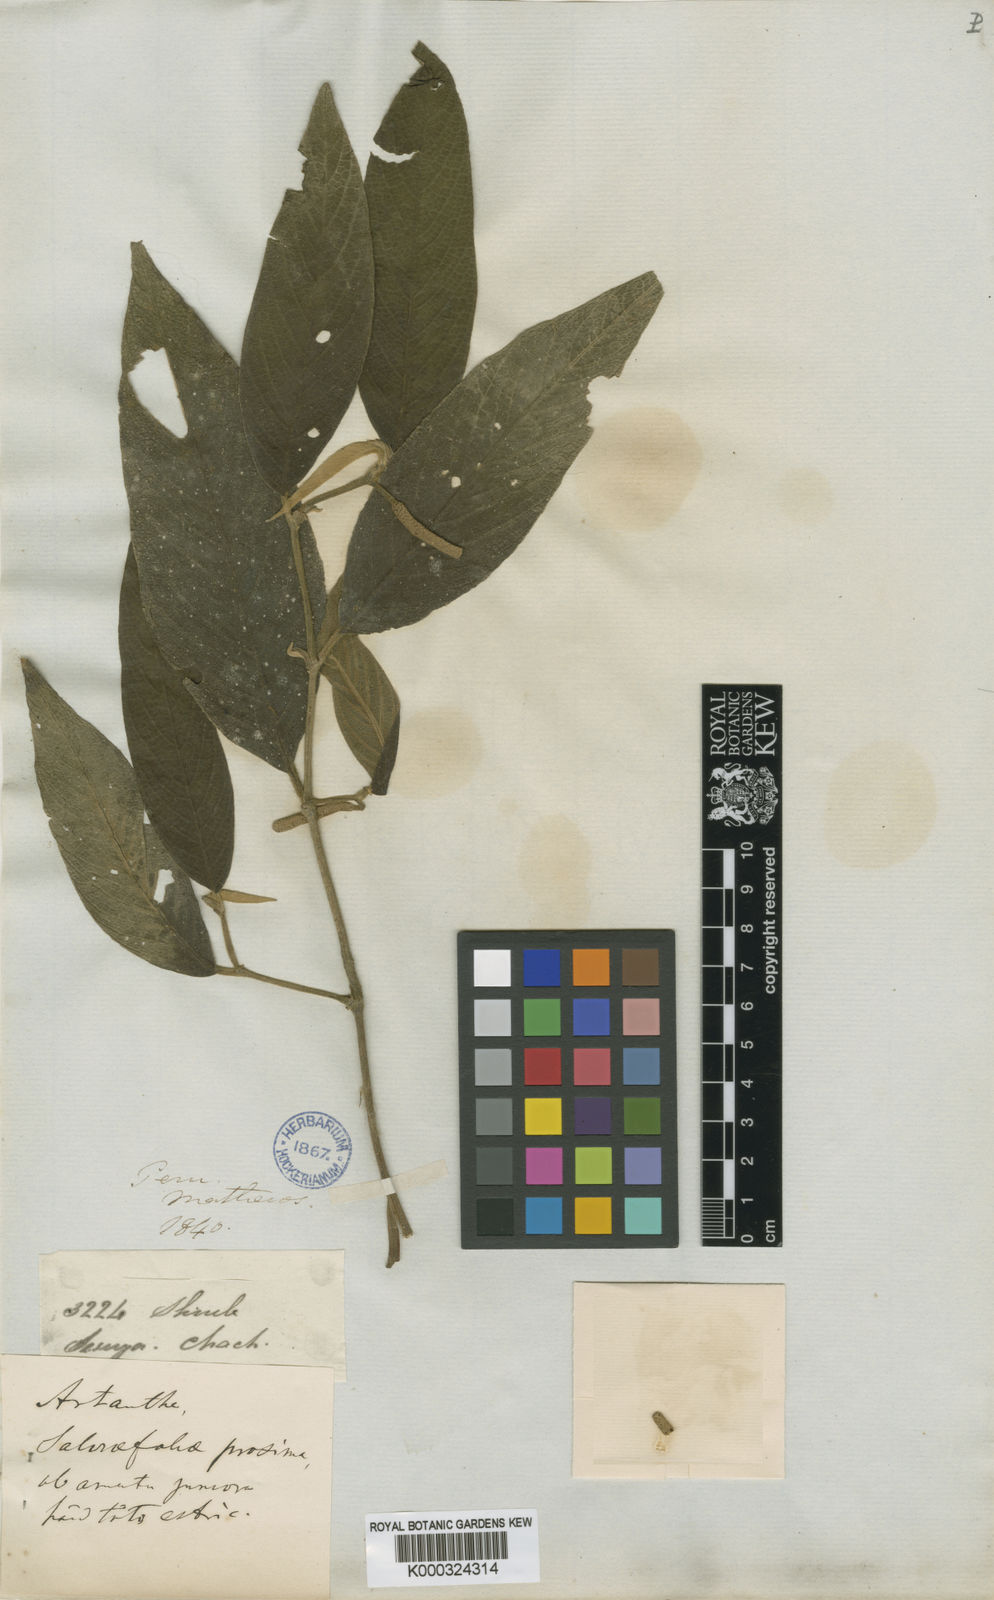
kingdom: Plantae
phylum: Tracheophyta
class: Magnoliopsida
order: Piperales
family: Piperaceae
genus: Piper
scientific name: Piper hancei
